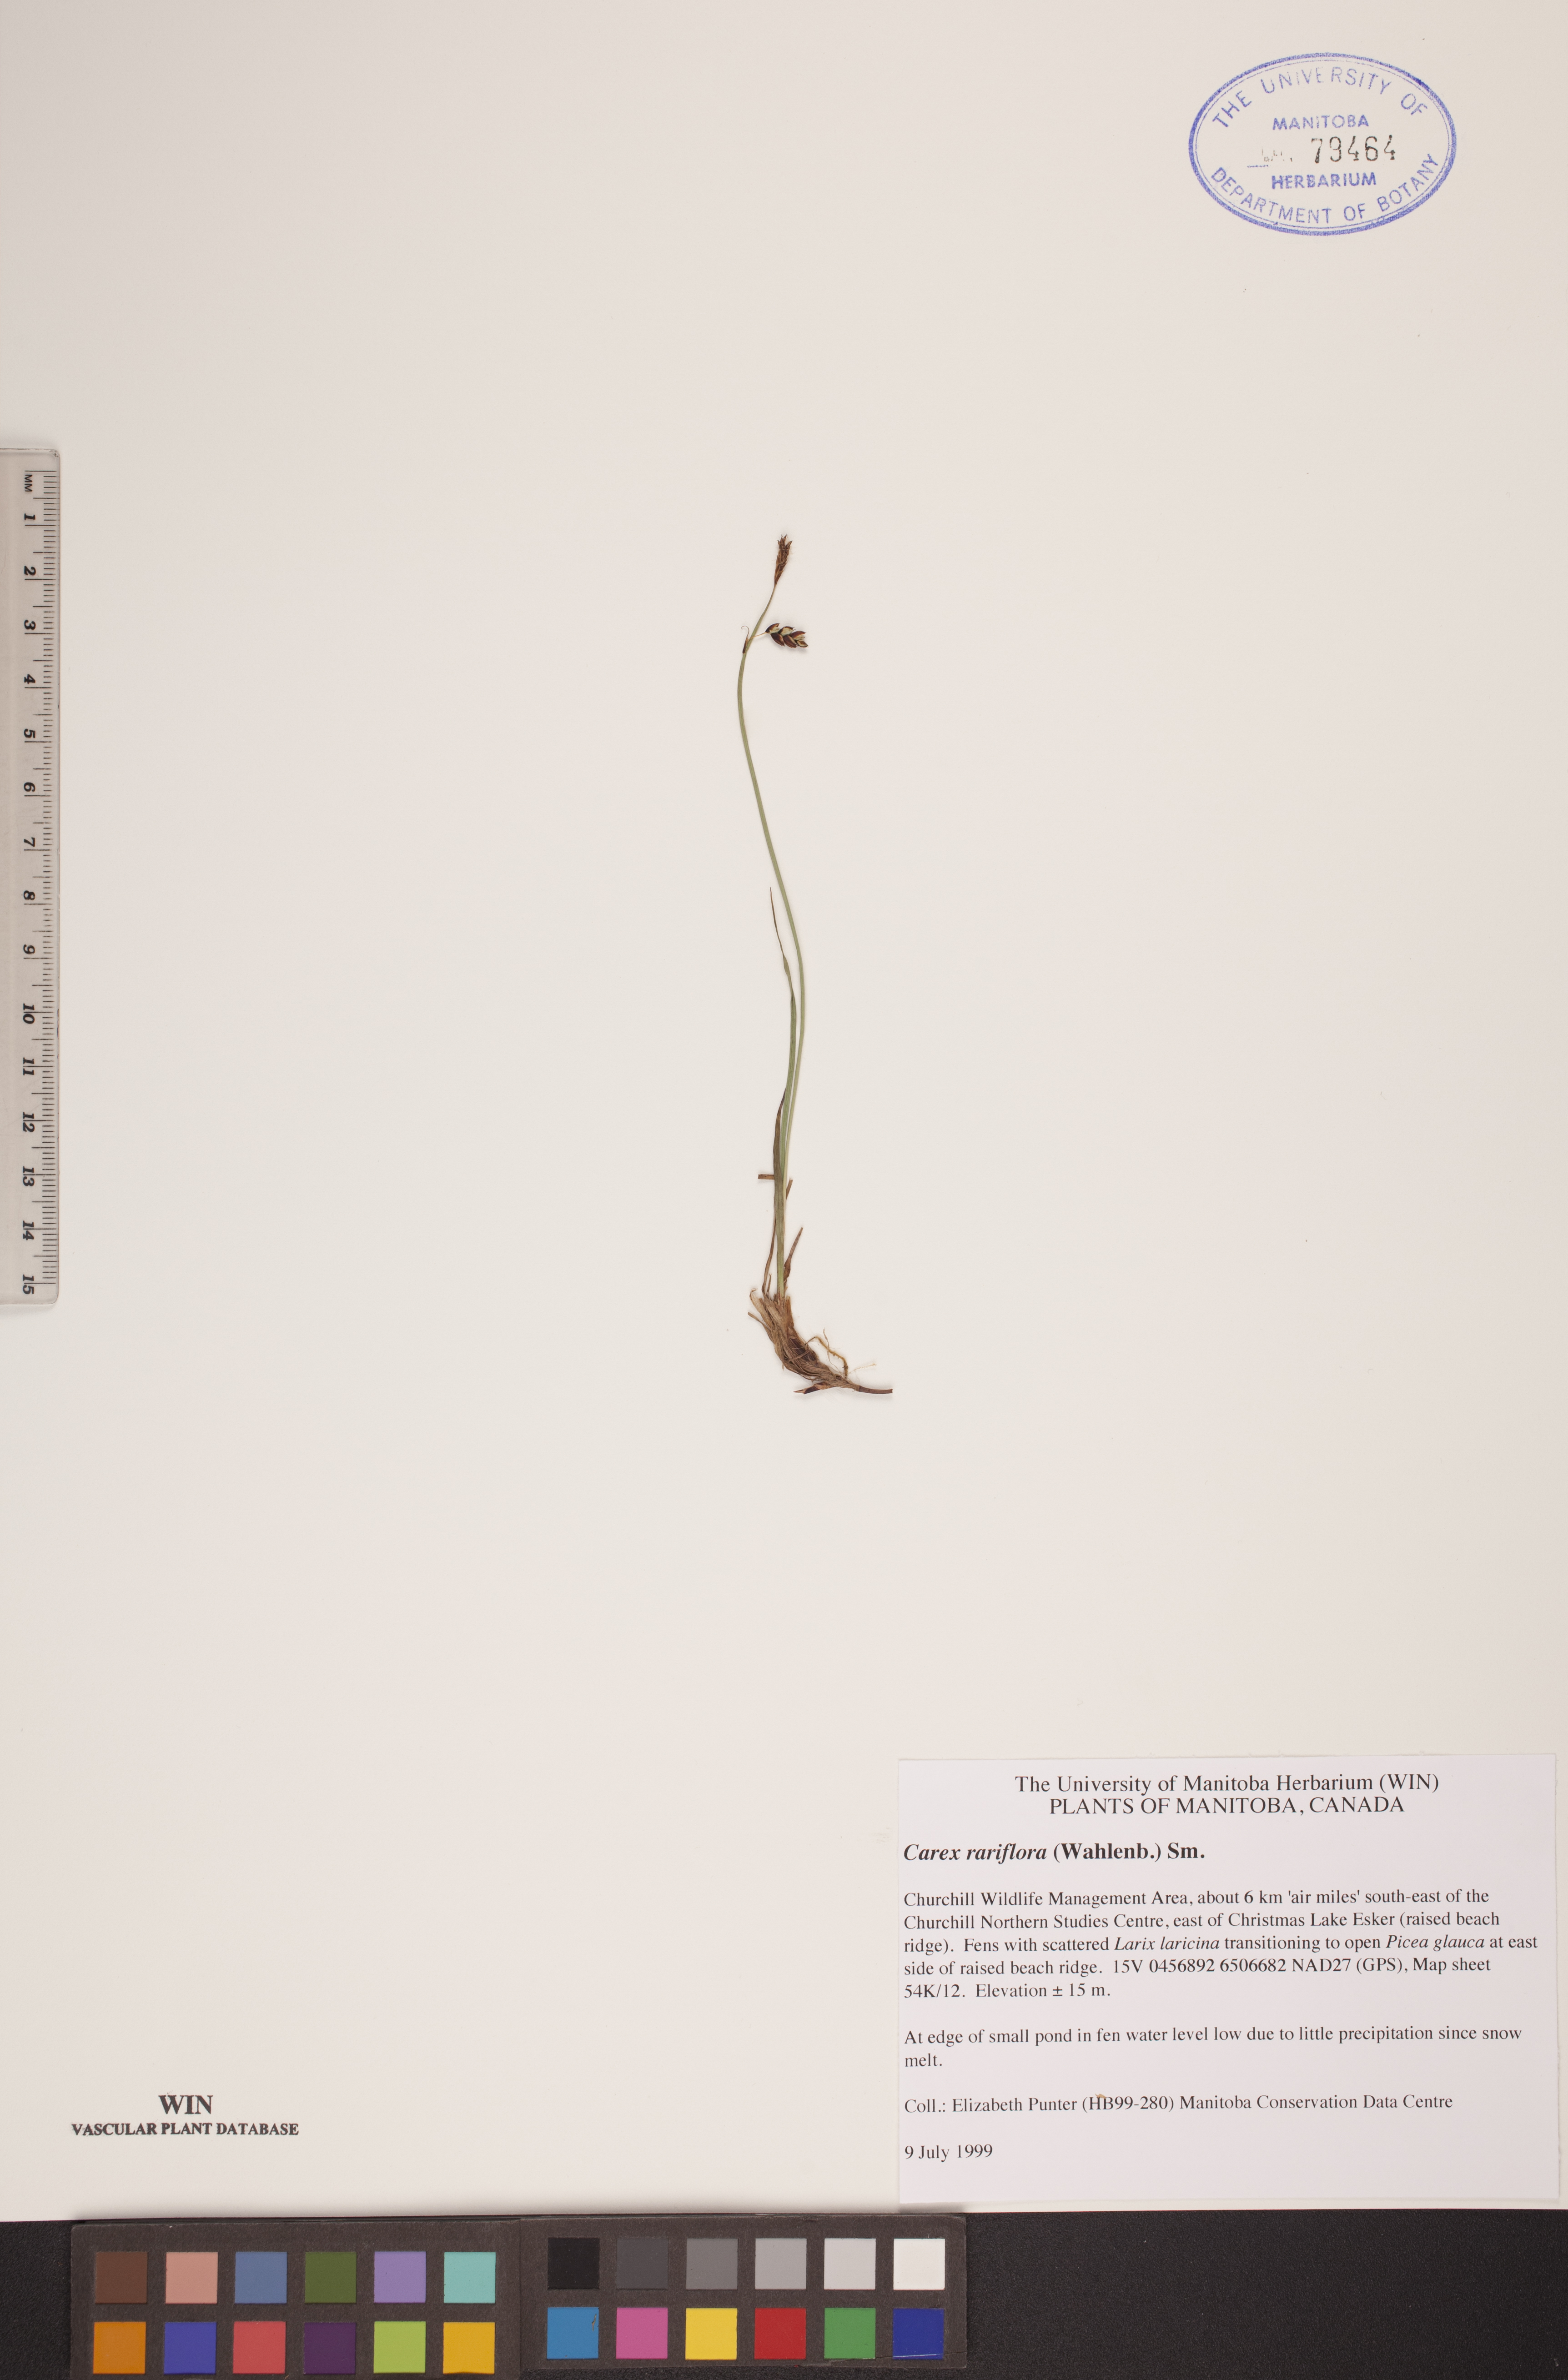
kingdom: Plantae
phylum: Tracheophyta
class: Liliopsida
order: Poales
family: Cyperaceae
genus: Carex
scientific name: Carex rariflora
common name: Loose-flowered alpine sedge
